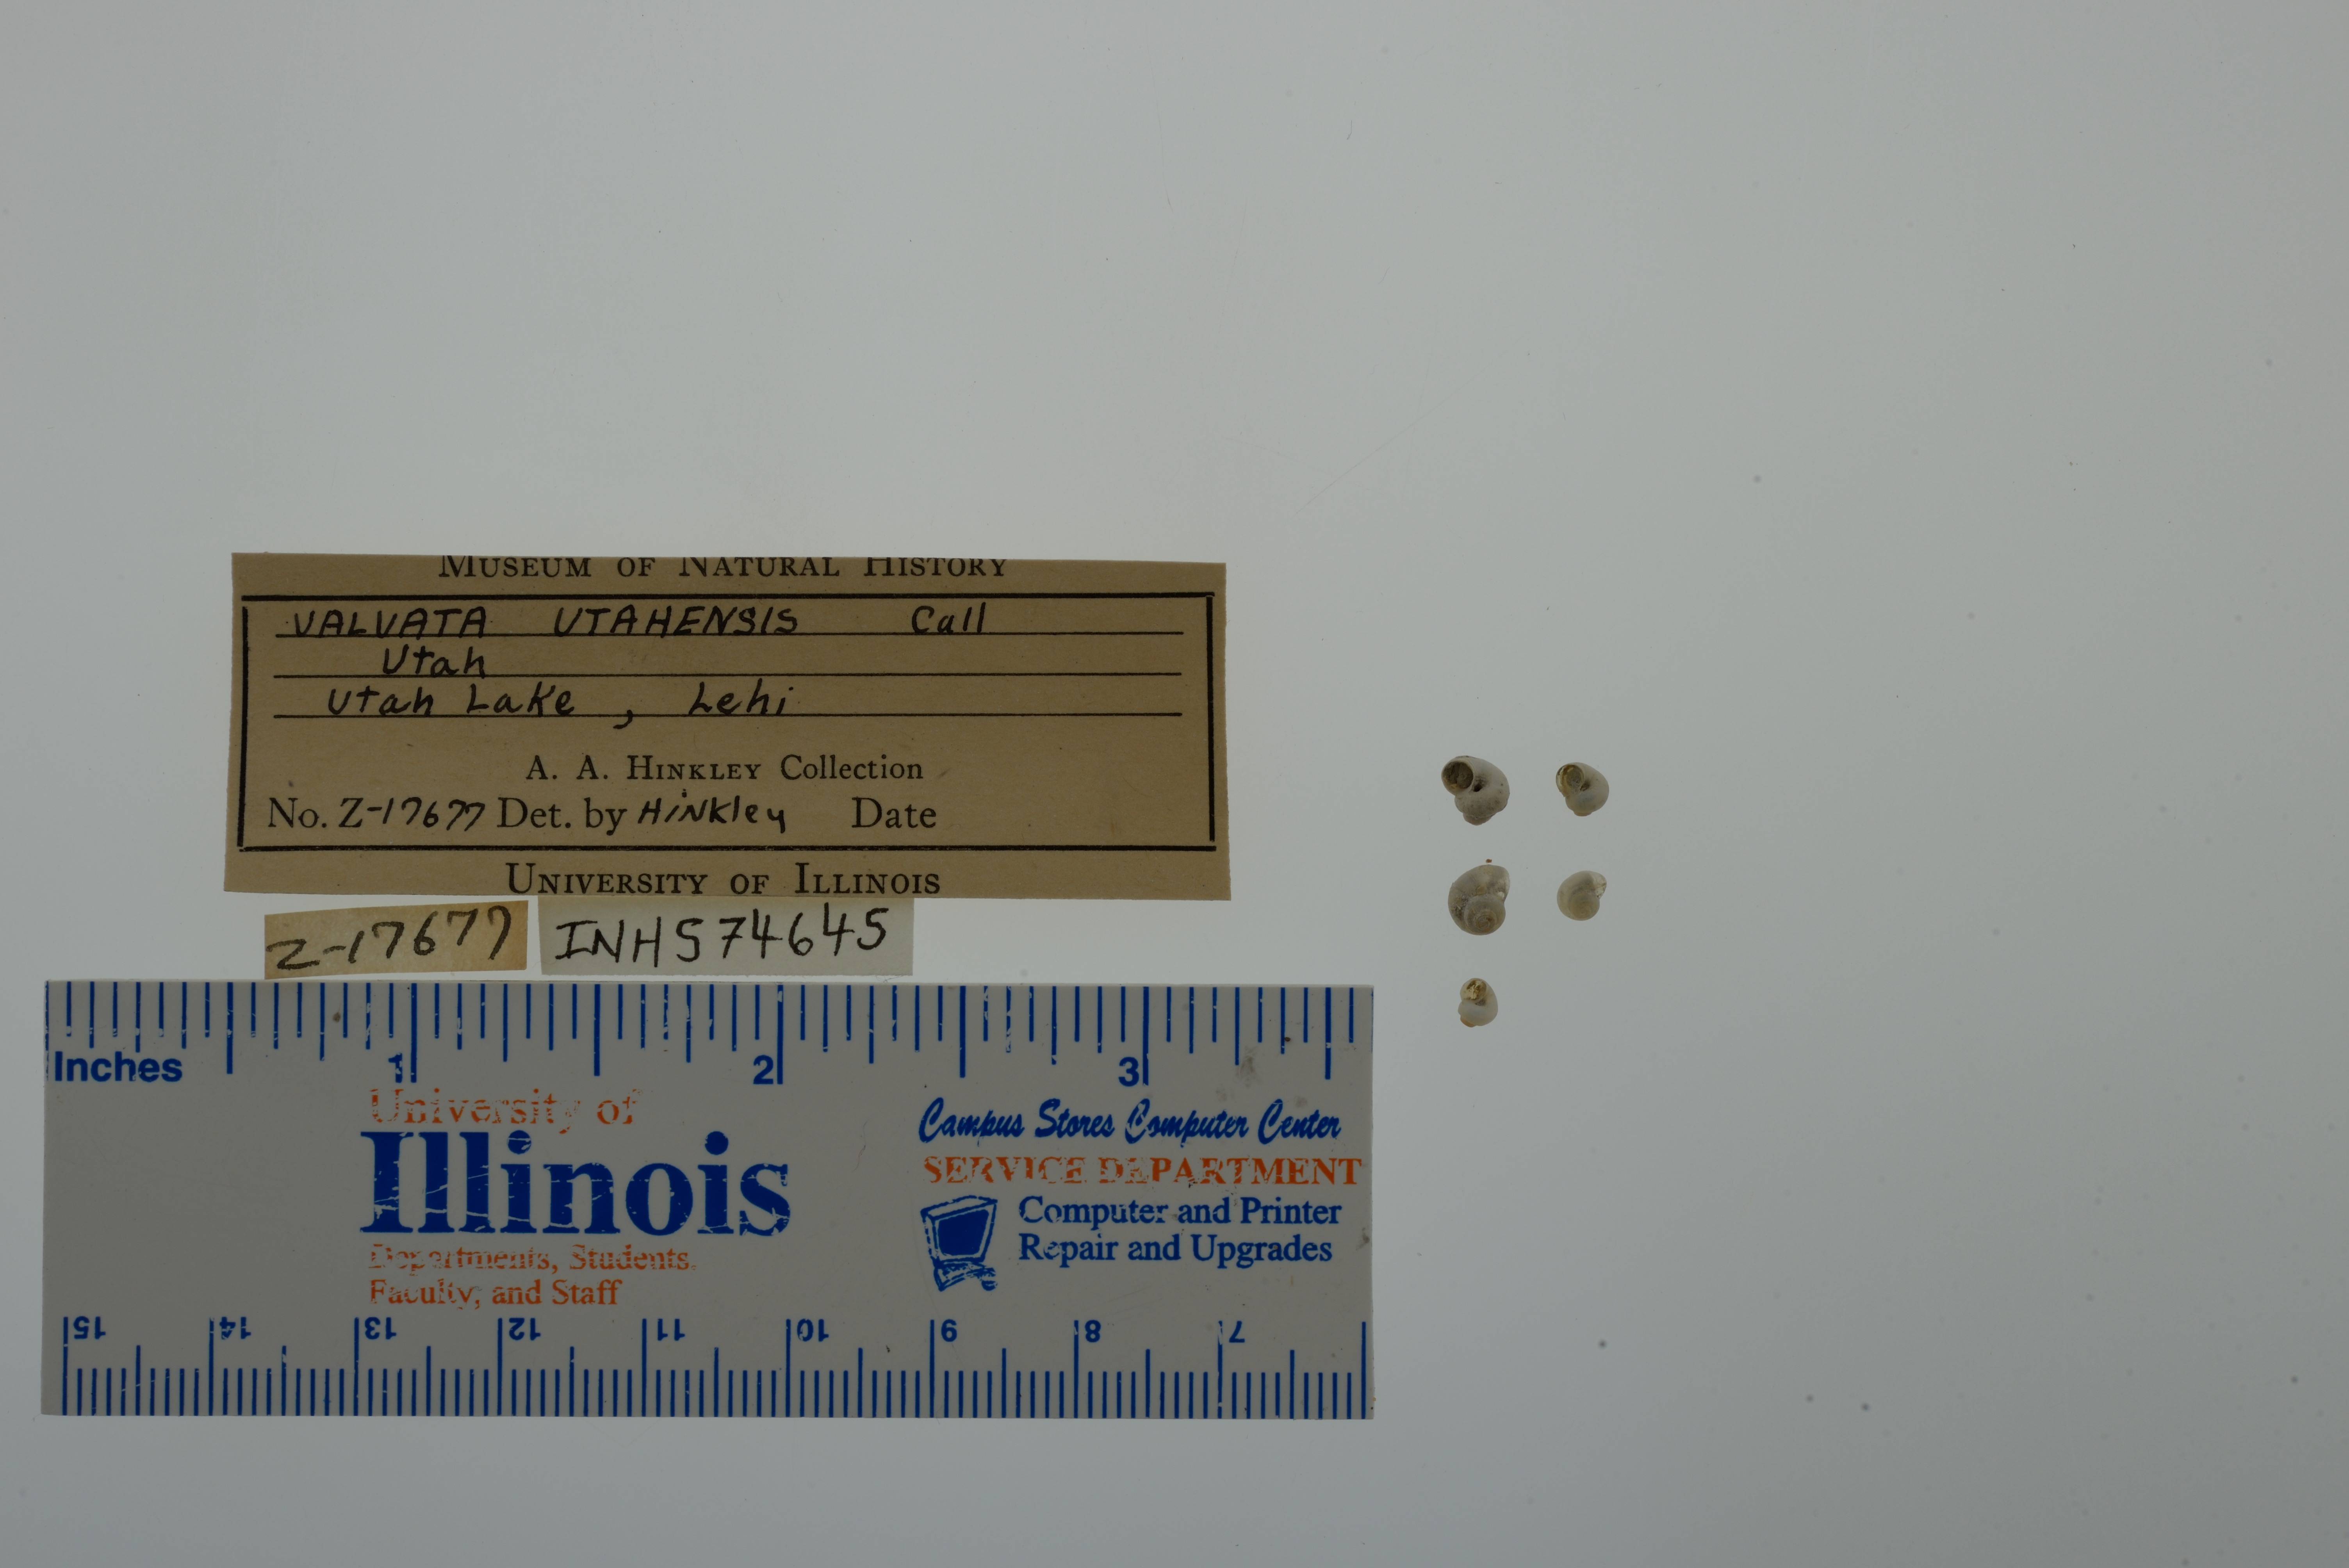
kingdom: Animalia
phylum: Mollusca
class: Gastropoda
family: Valvatidae
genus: Valvata
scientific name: Valvata utahensis
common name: Desert valvata
